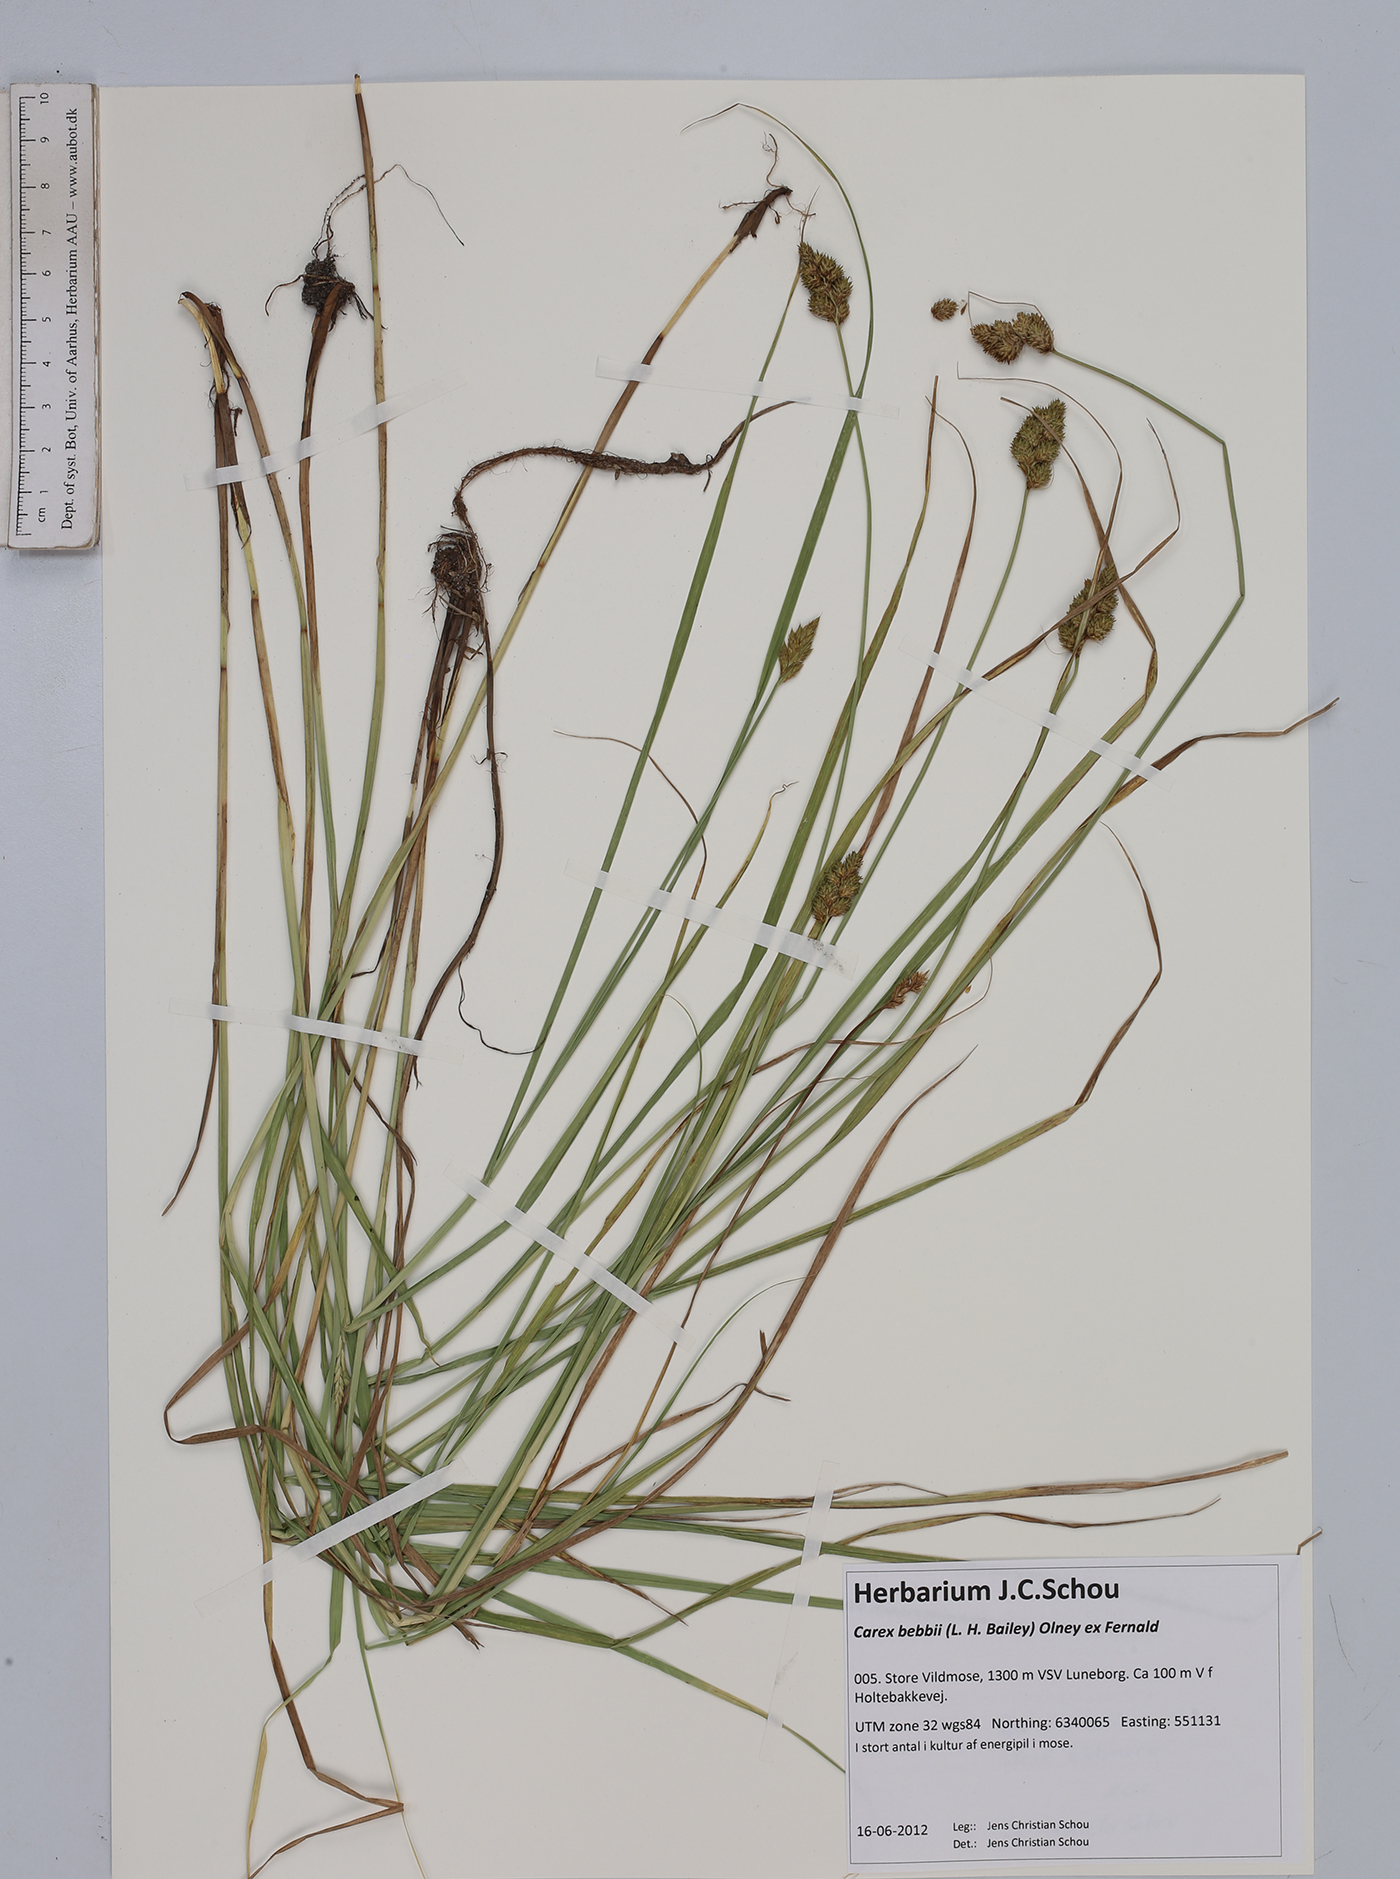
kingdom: Plantae
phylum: Tracheophyta
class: Liliopsida
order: Poales
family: Cyperaceae
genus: Carex
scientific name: Carex bebbii
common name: Bebb's sedge
